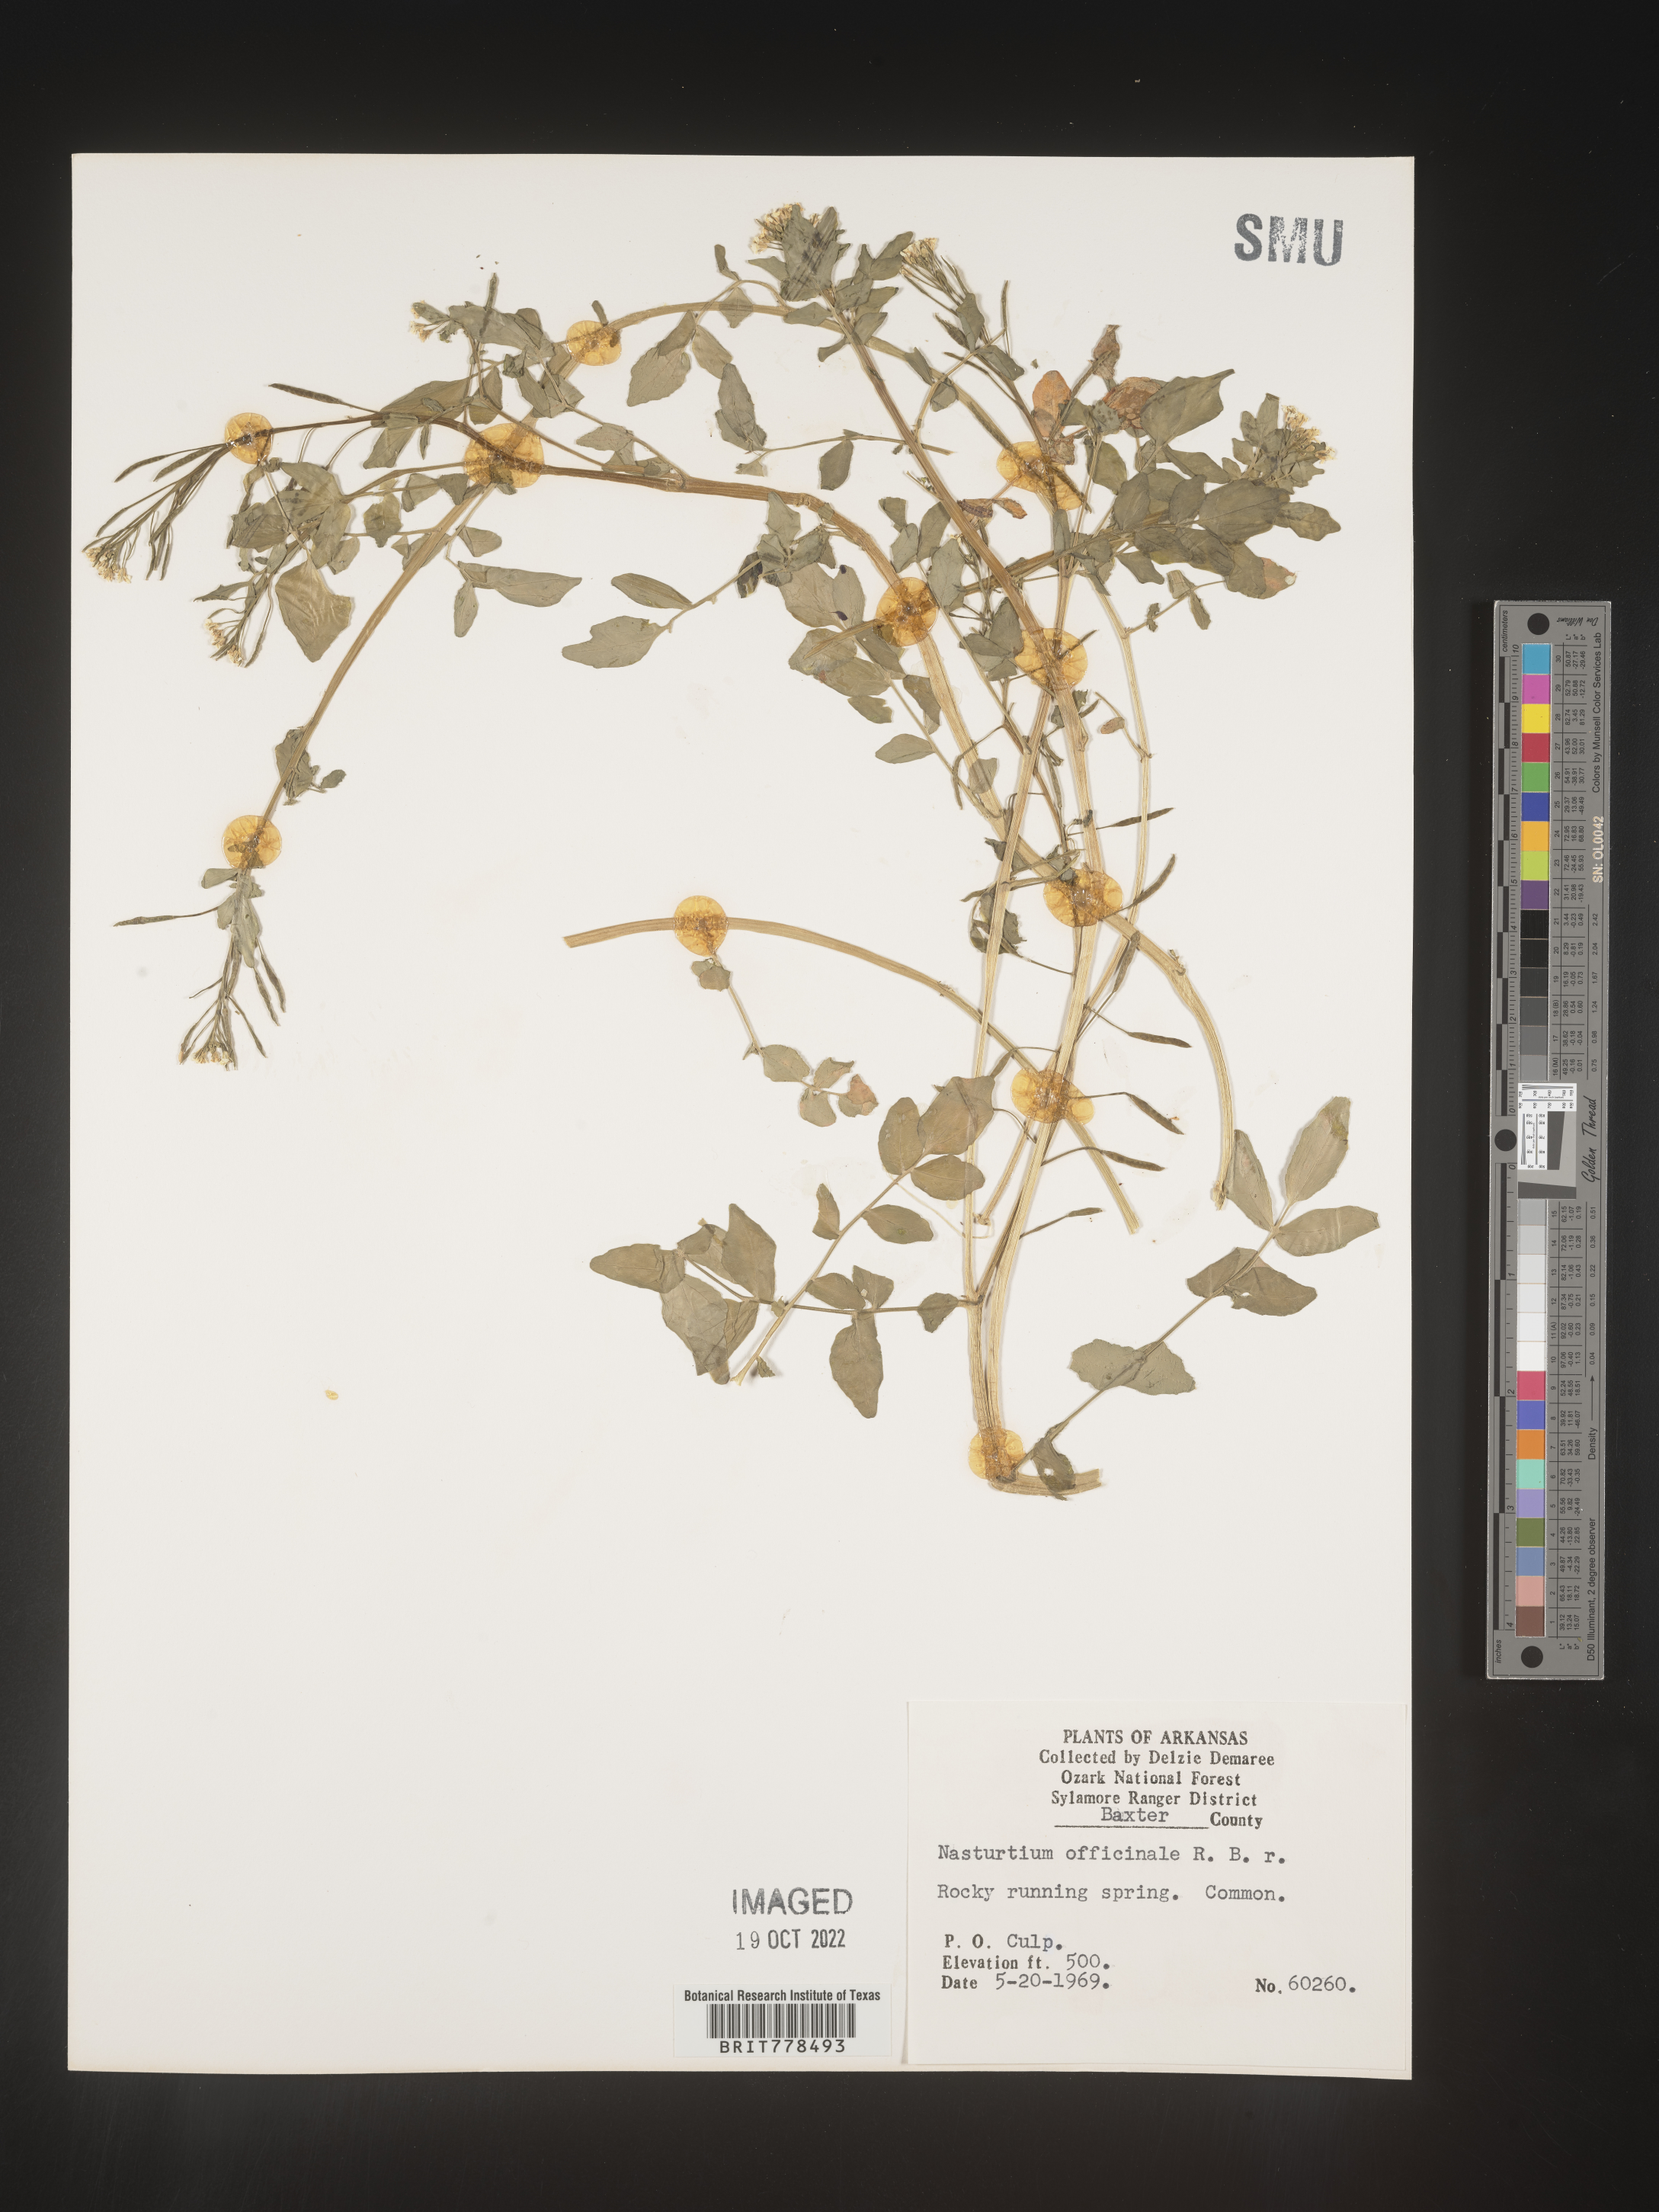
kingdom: Plantae
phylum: Tracheophyta
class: Magnoliopsida
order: Brassicales
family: Brassicaceae
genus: Nasturtium
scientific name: Nasturtium officinale
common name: Watercress
